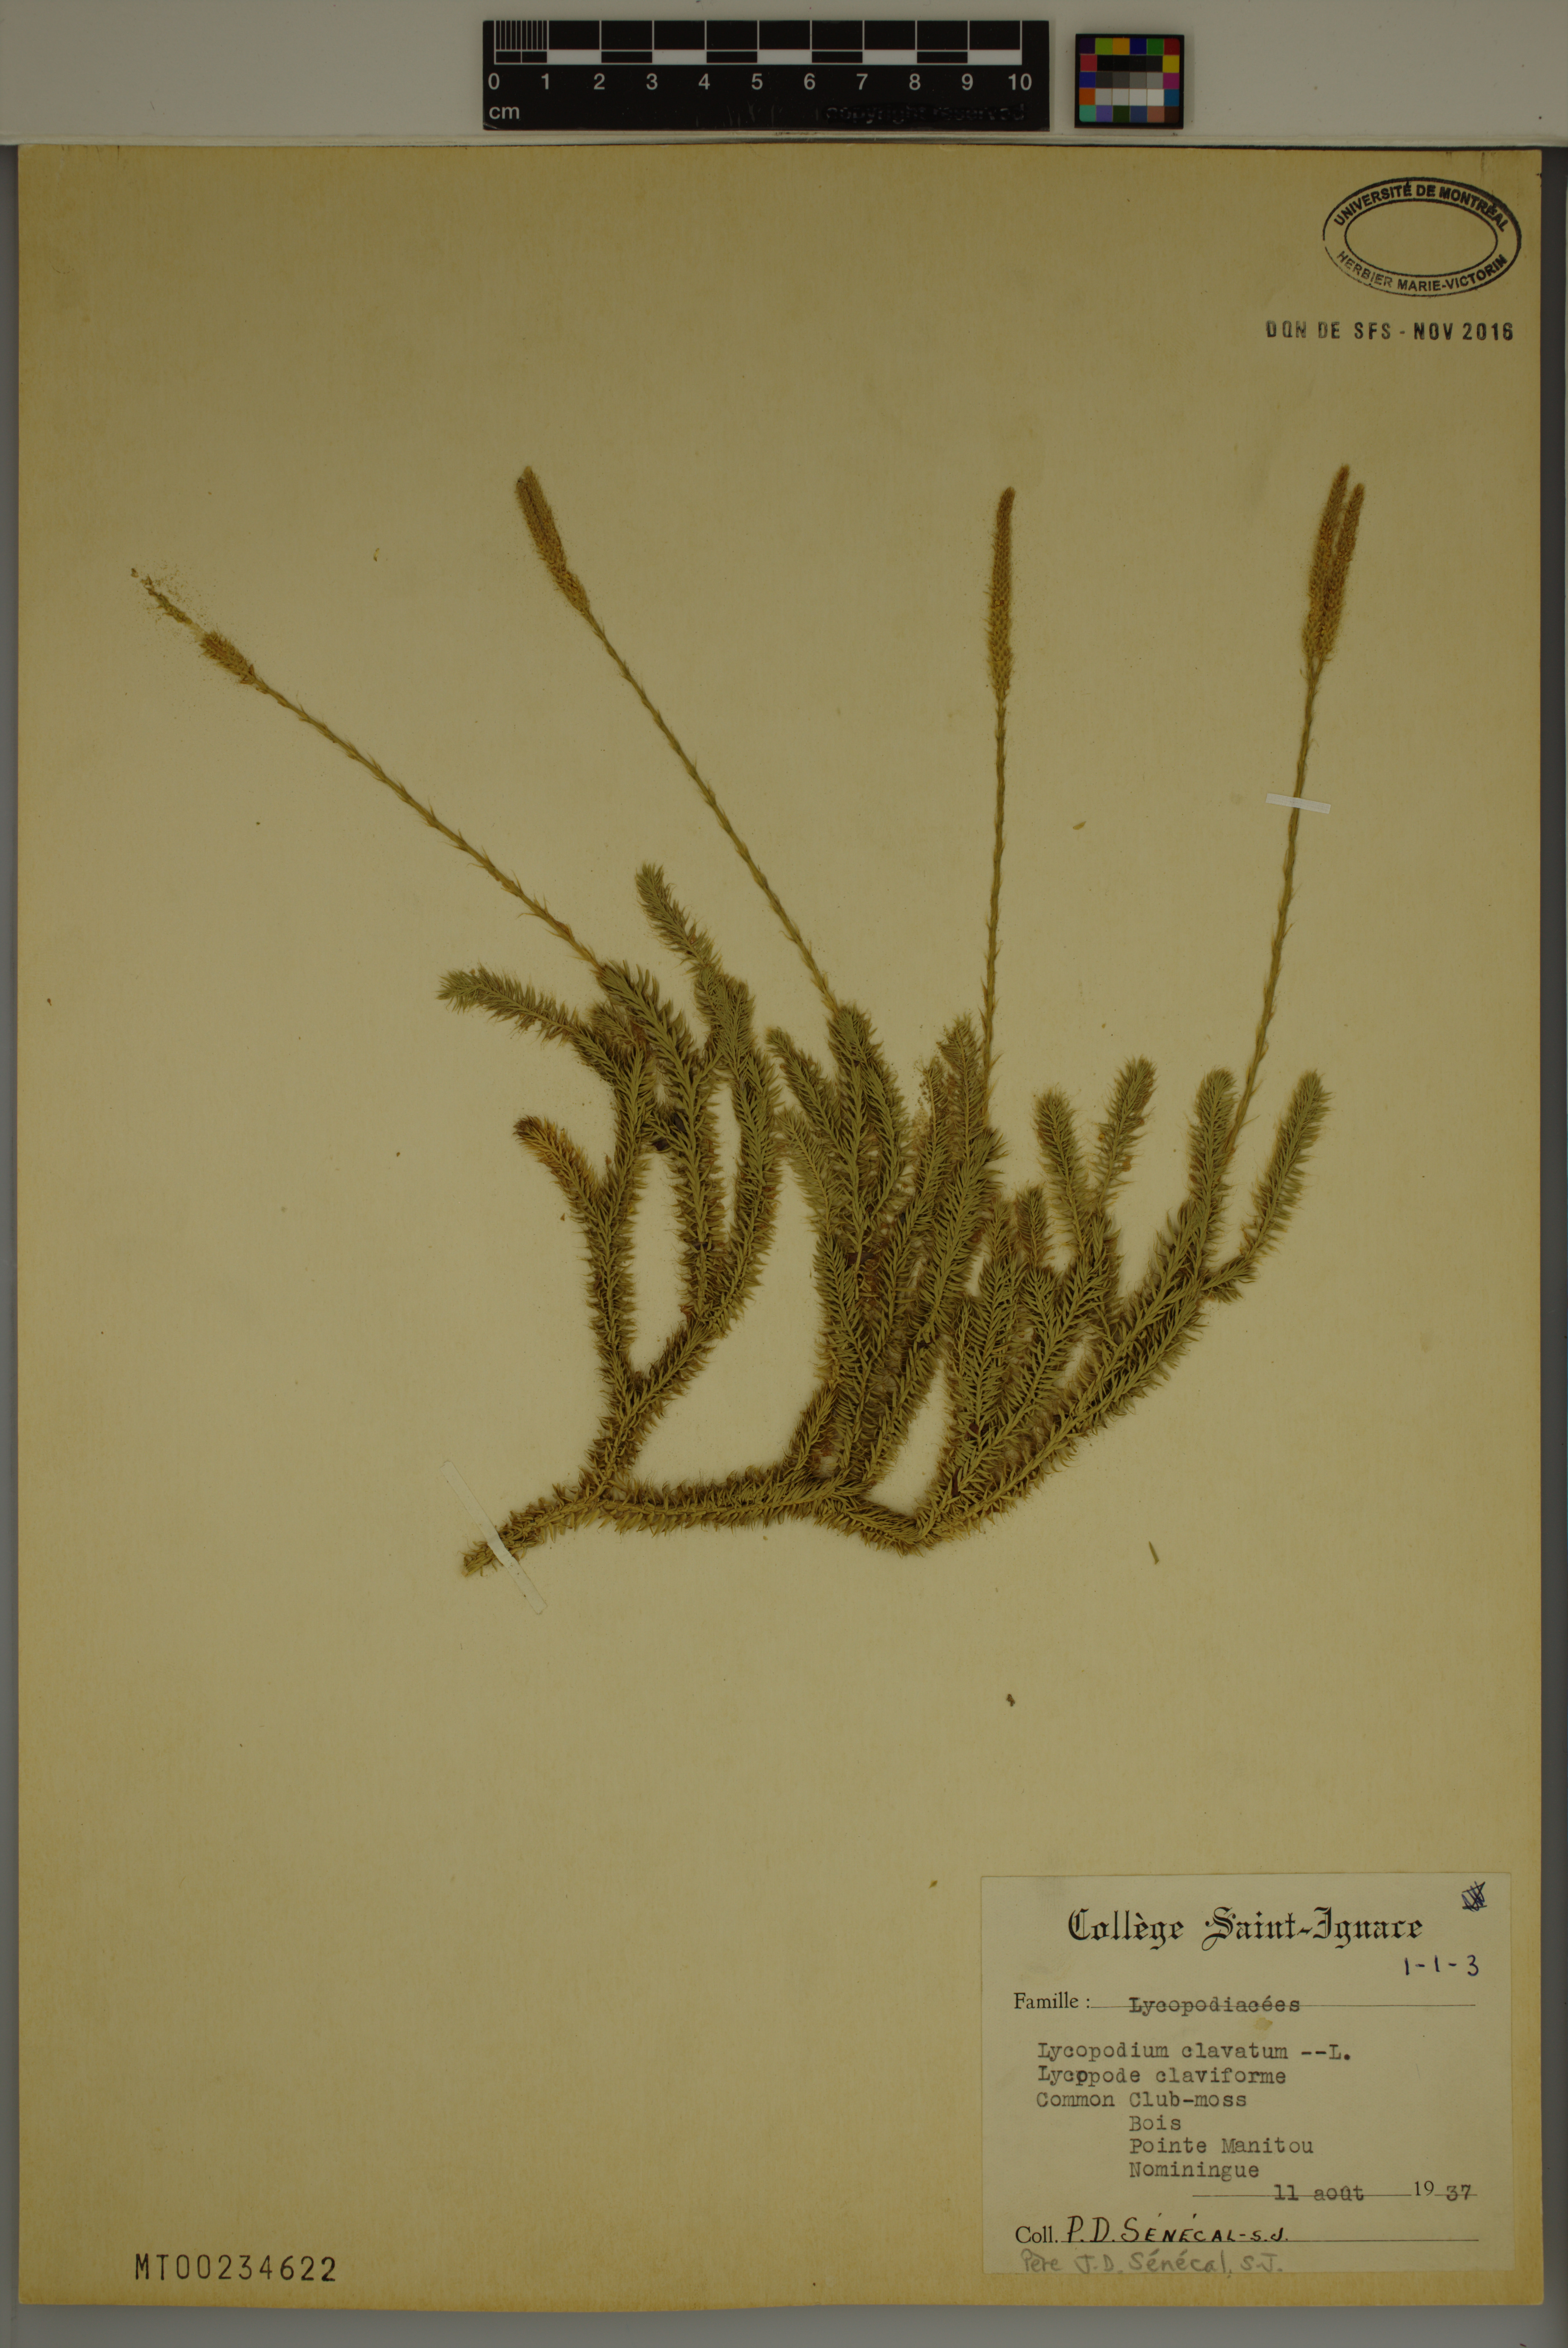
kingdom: Plantae
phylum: Tracheophyta
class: Lycopodiopsida
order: Lycopodiales
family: Lycopodiaceae
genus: Lycopodium
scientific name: Lycopodium clavatum
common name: Stag's-horn clubmoss
